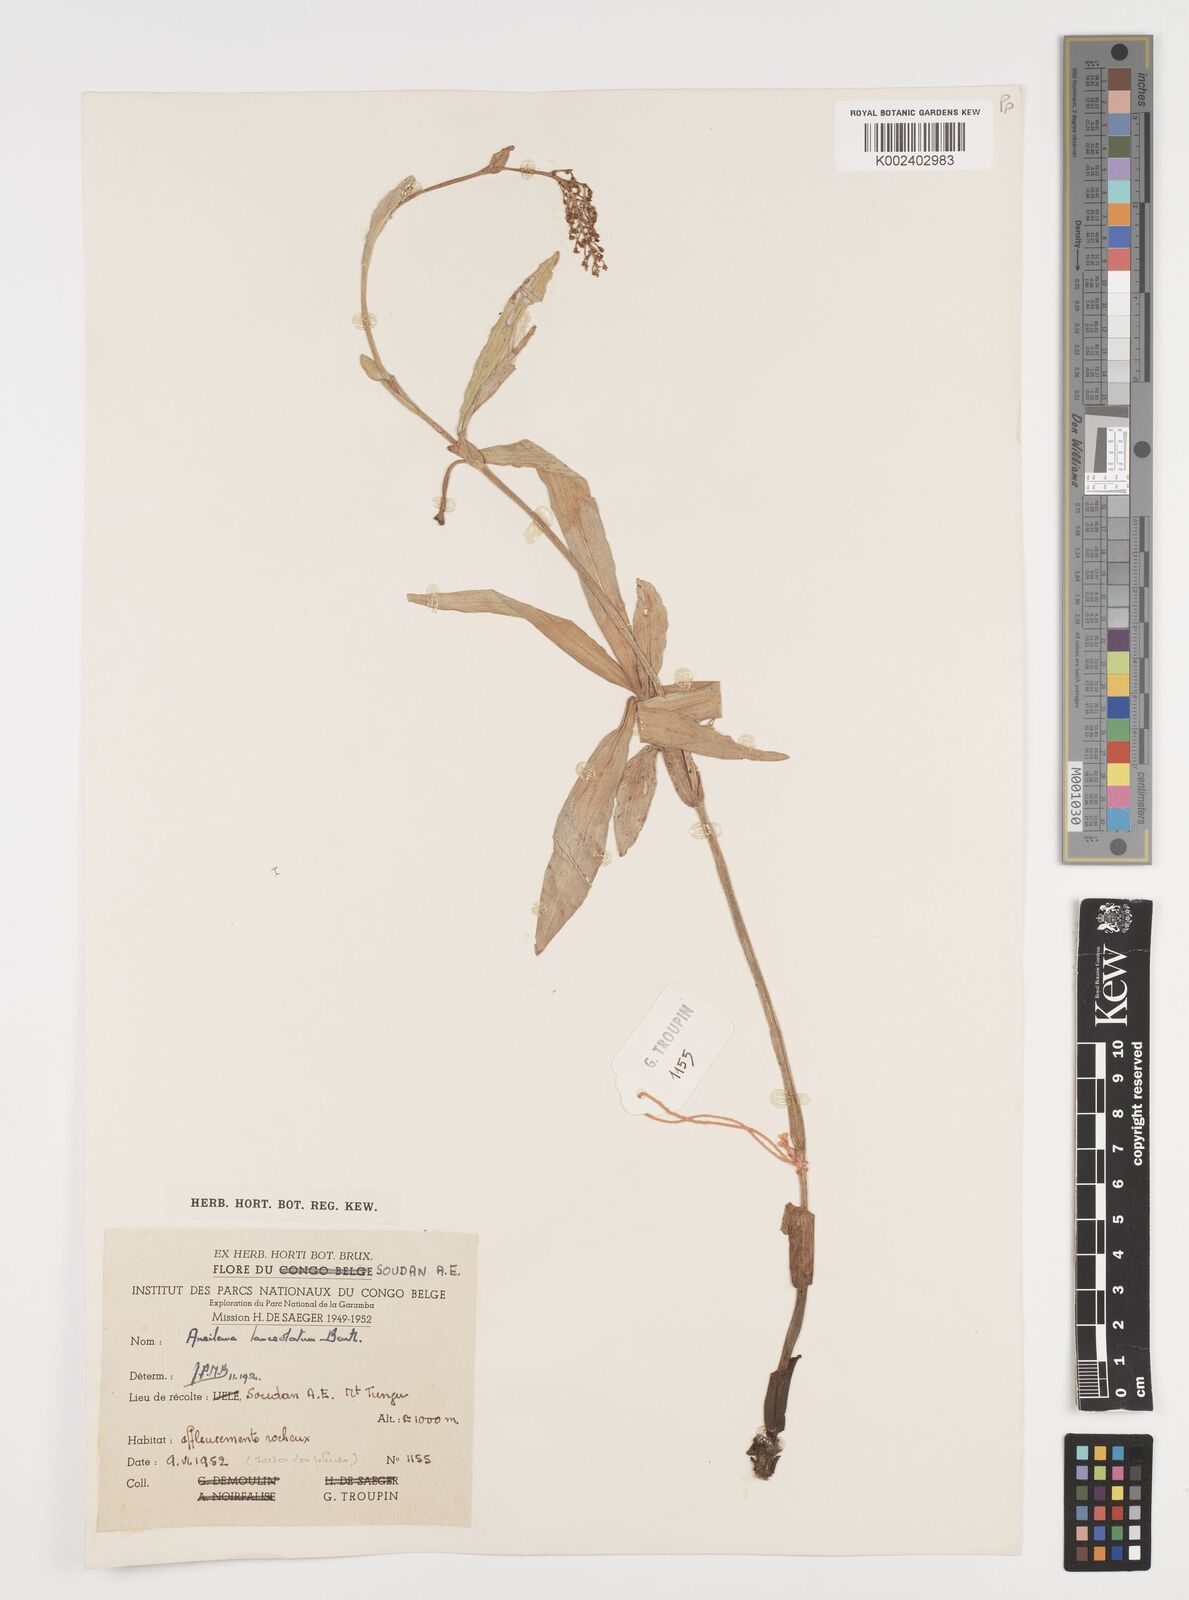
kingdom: Plantae
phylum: Tracheophyta
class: Liliopsida
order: Commelinales
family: Commelinaceae
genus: Aneilema
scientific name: Aneilema lanceolatum
